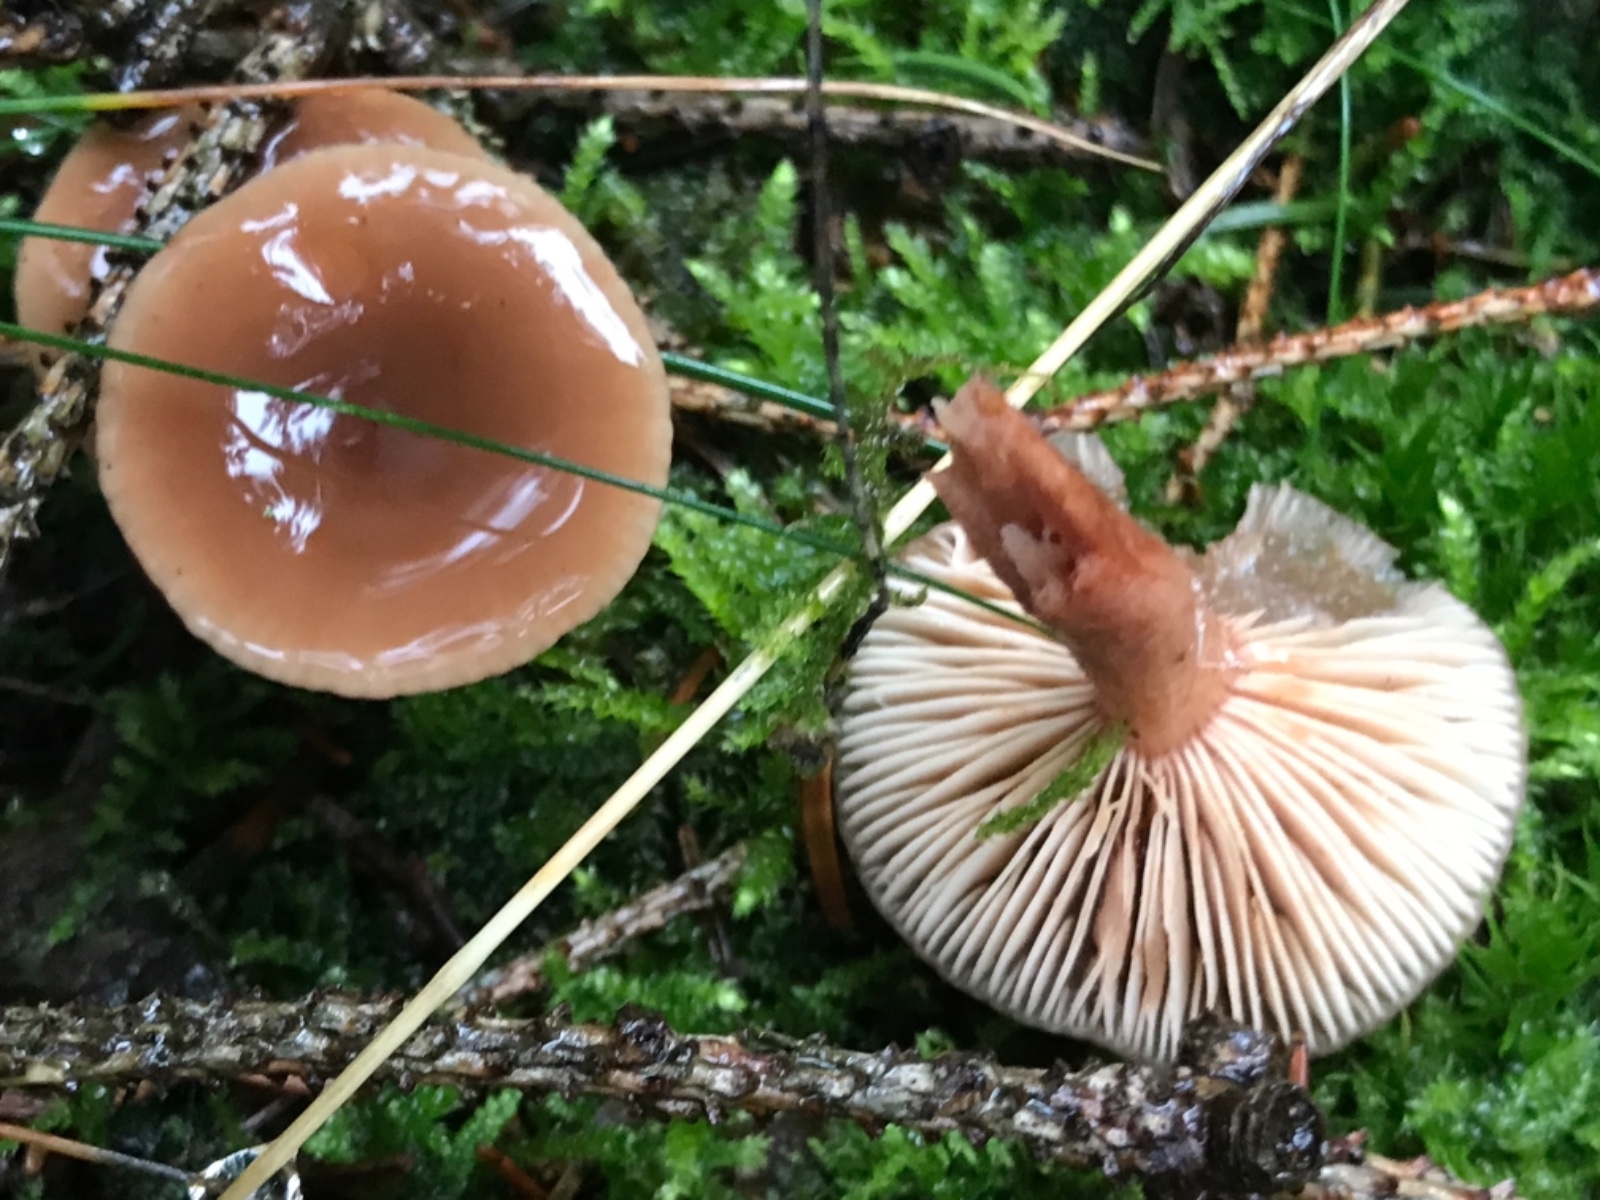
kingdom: Fungi
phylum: Basidiomycota
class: Agaricomycetes
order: Russulales
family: Russulaceae
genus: Lactarius
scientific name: Lactarius
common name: mælkehat
